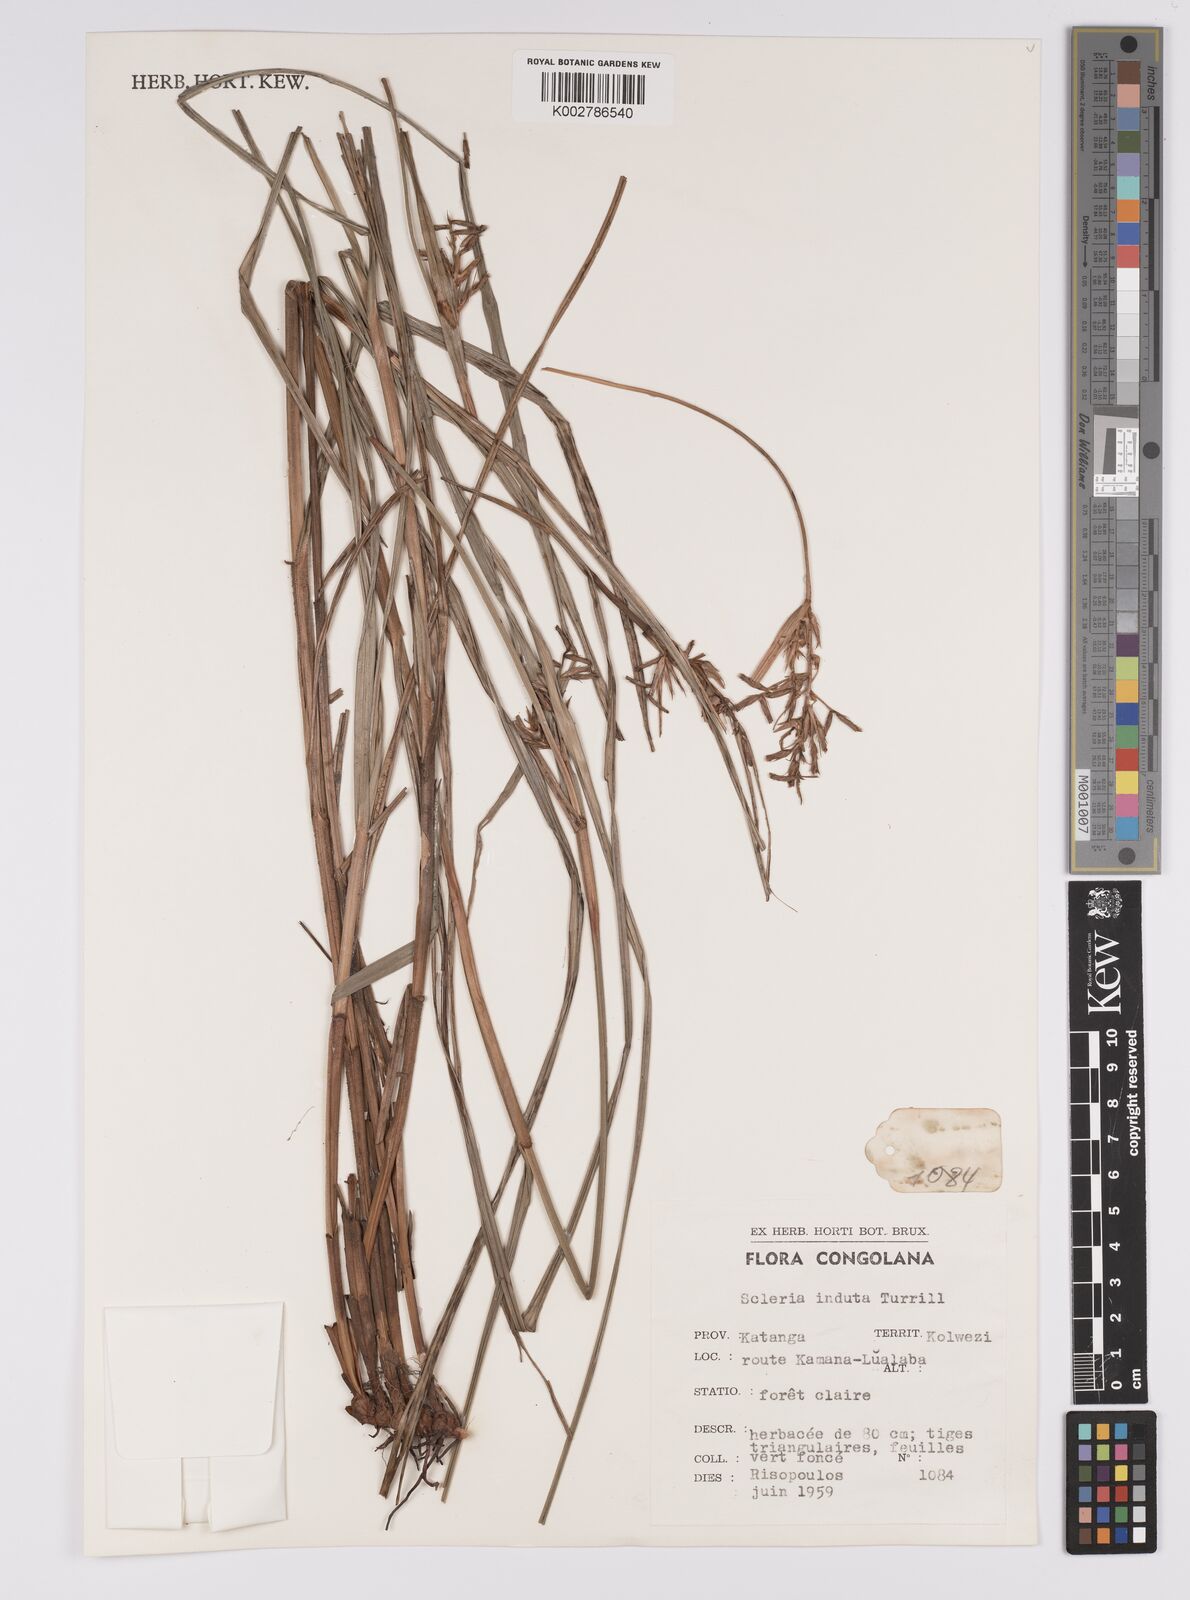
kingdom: Plantae
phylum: Tracheophyta
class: Liliopsida
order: Poales
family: Cyperaceae
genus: Scleria
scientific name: Scleria induta
